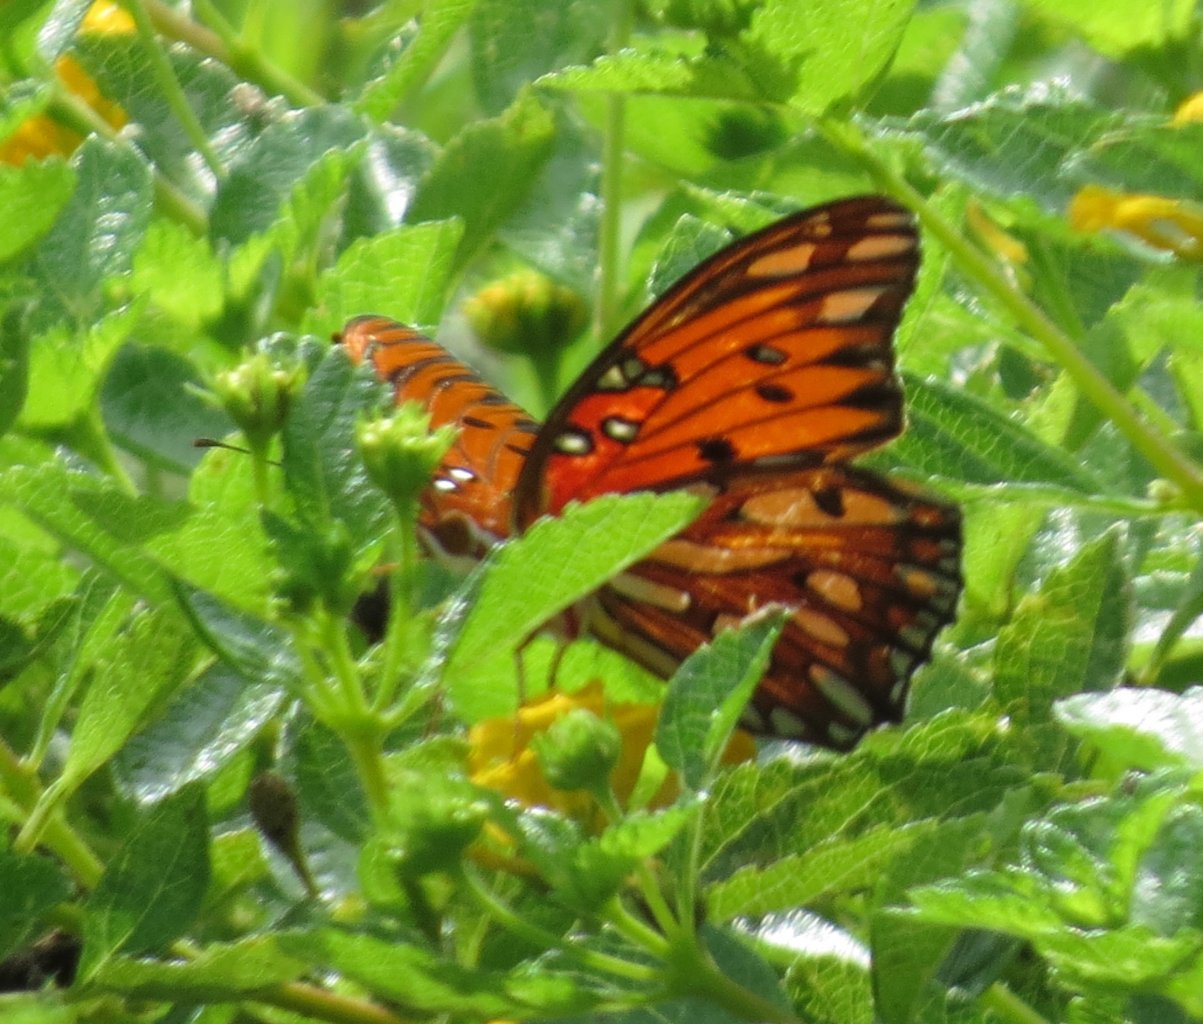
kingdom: Animalia
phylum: Arthropoda
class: Insecta
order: Lepidoptera
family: Nymphalidae
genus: Dione
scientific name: Dione vanillae
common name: Gulf Fritillary
